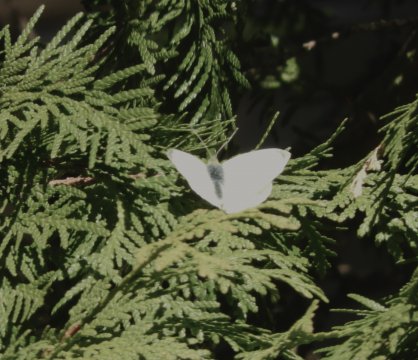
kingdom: Animalia
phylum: Arthropoda
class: Insecta
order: Lepidoptera
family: Pieridae
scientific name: Pieridae
